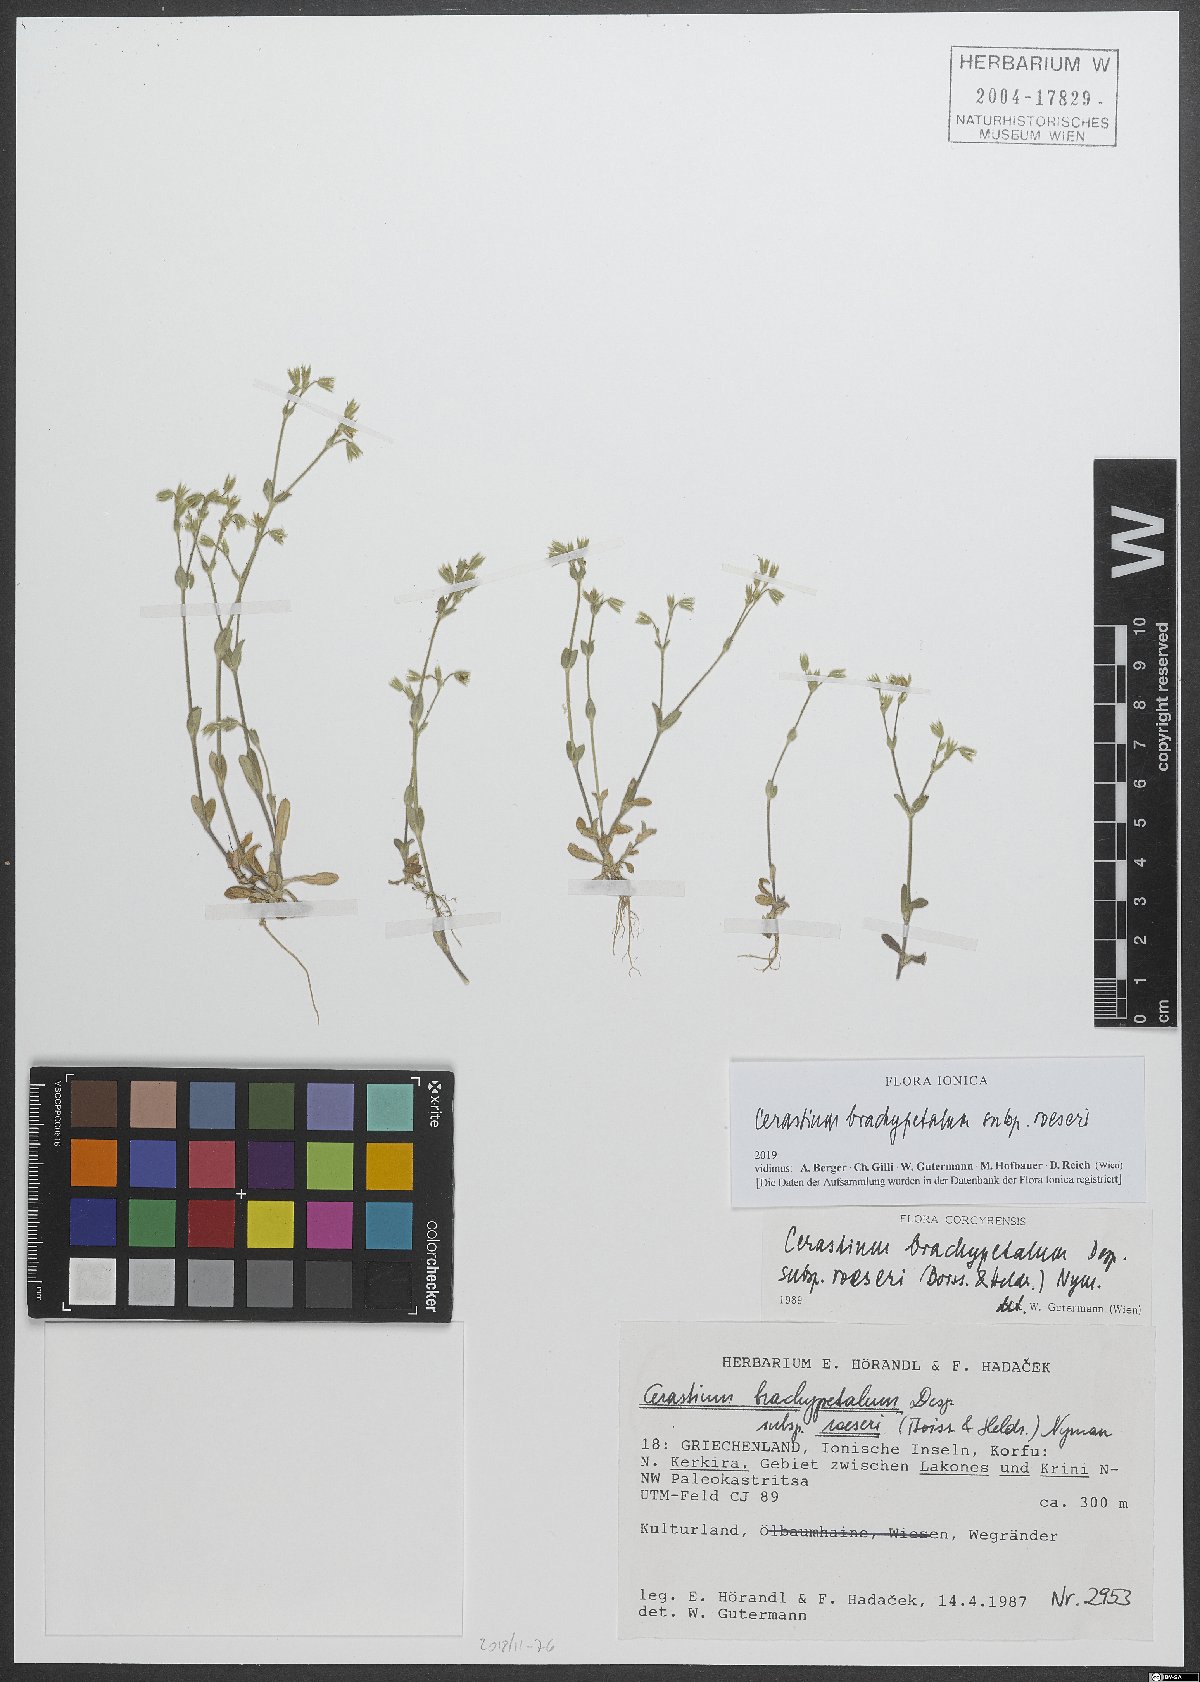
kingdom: Plantae
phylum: Tracheophyta
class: Magnoliopsida
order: Caryophyllales
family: Caryophyllaceae
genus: Cerastium
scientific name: Cerastium brachypetalum
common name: Grey mouse-ear
